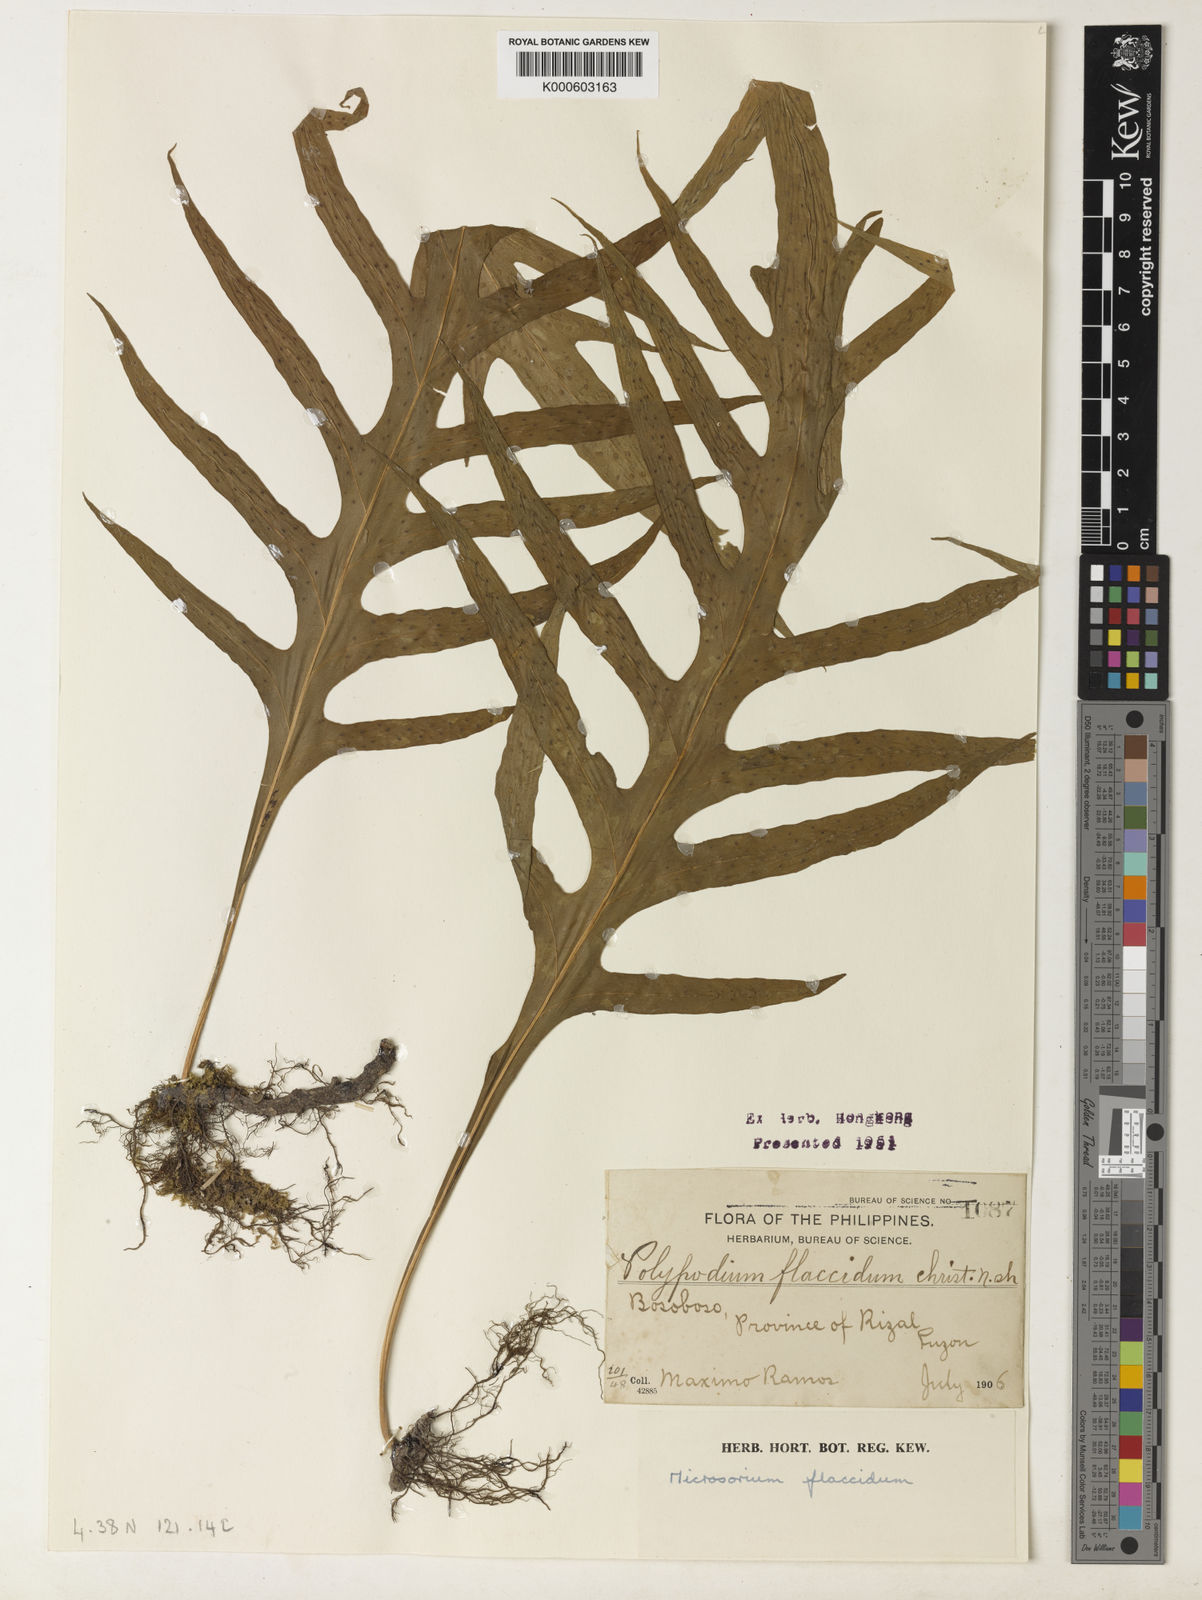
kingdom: Plantae
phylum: Tracheophyta
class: Polypodiopsida
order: Polypodiales
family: Polypodiaceae
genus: Microsorum
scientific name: Microsorum commutatum
